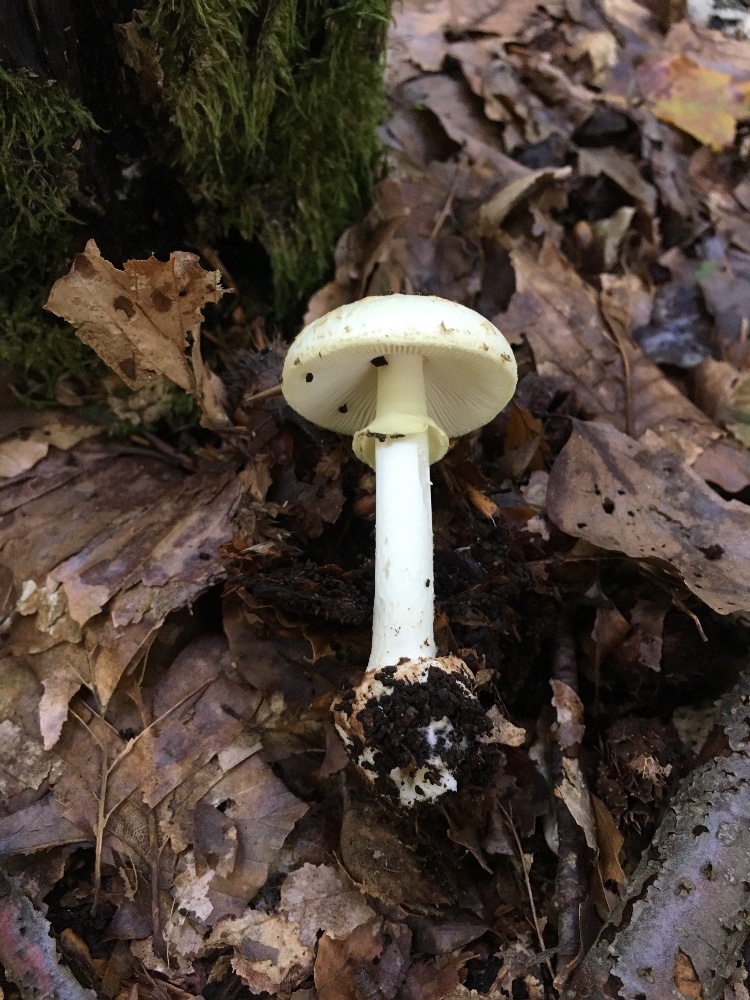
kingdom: Fungi
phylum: Basidiomycota
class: Agaricomycetes
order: Agaricales
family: Amanitaceae
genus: Amanita
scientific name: Amanita citrina
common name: kugleknoldet fluesvamp
